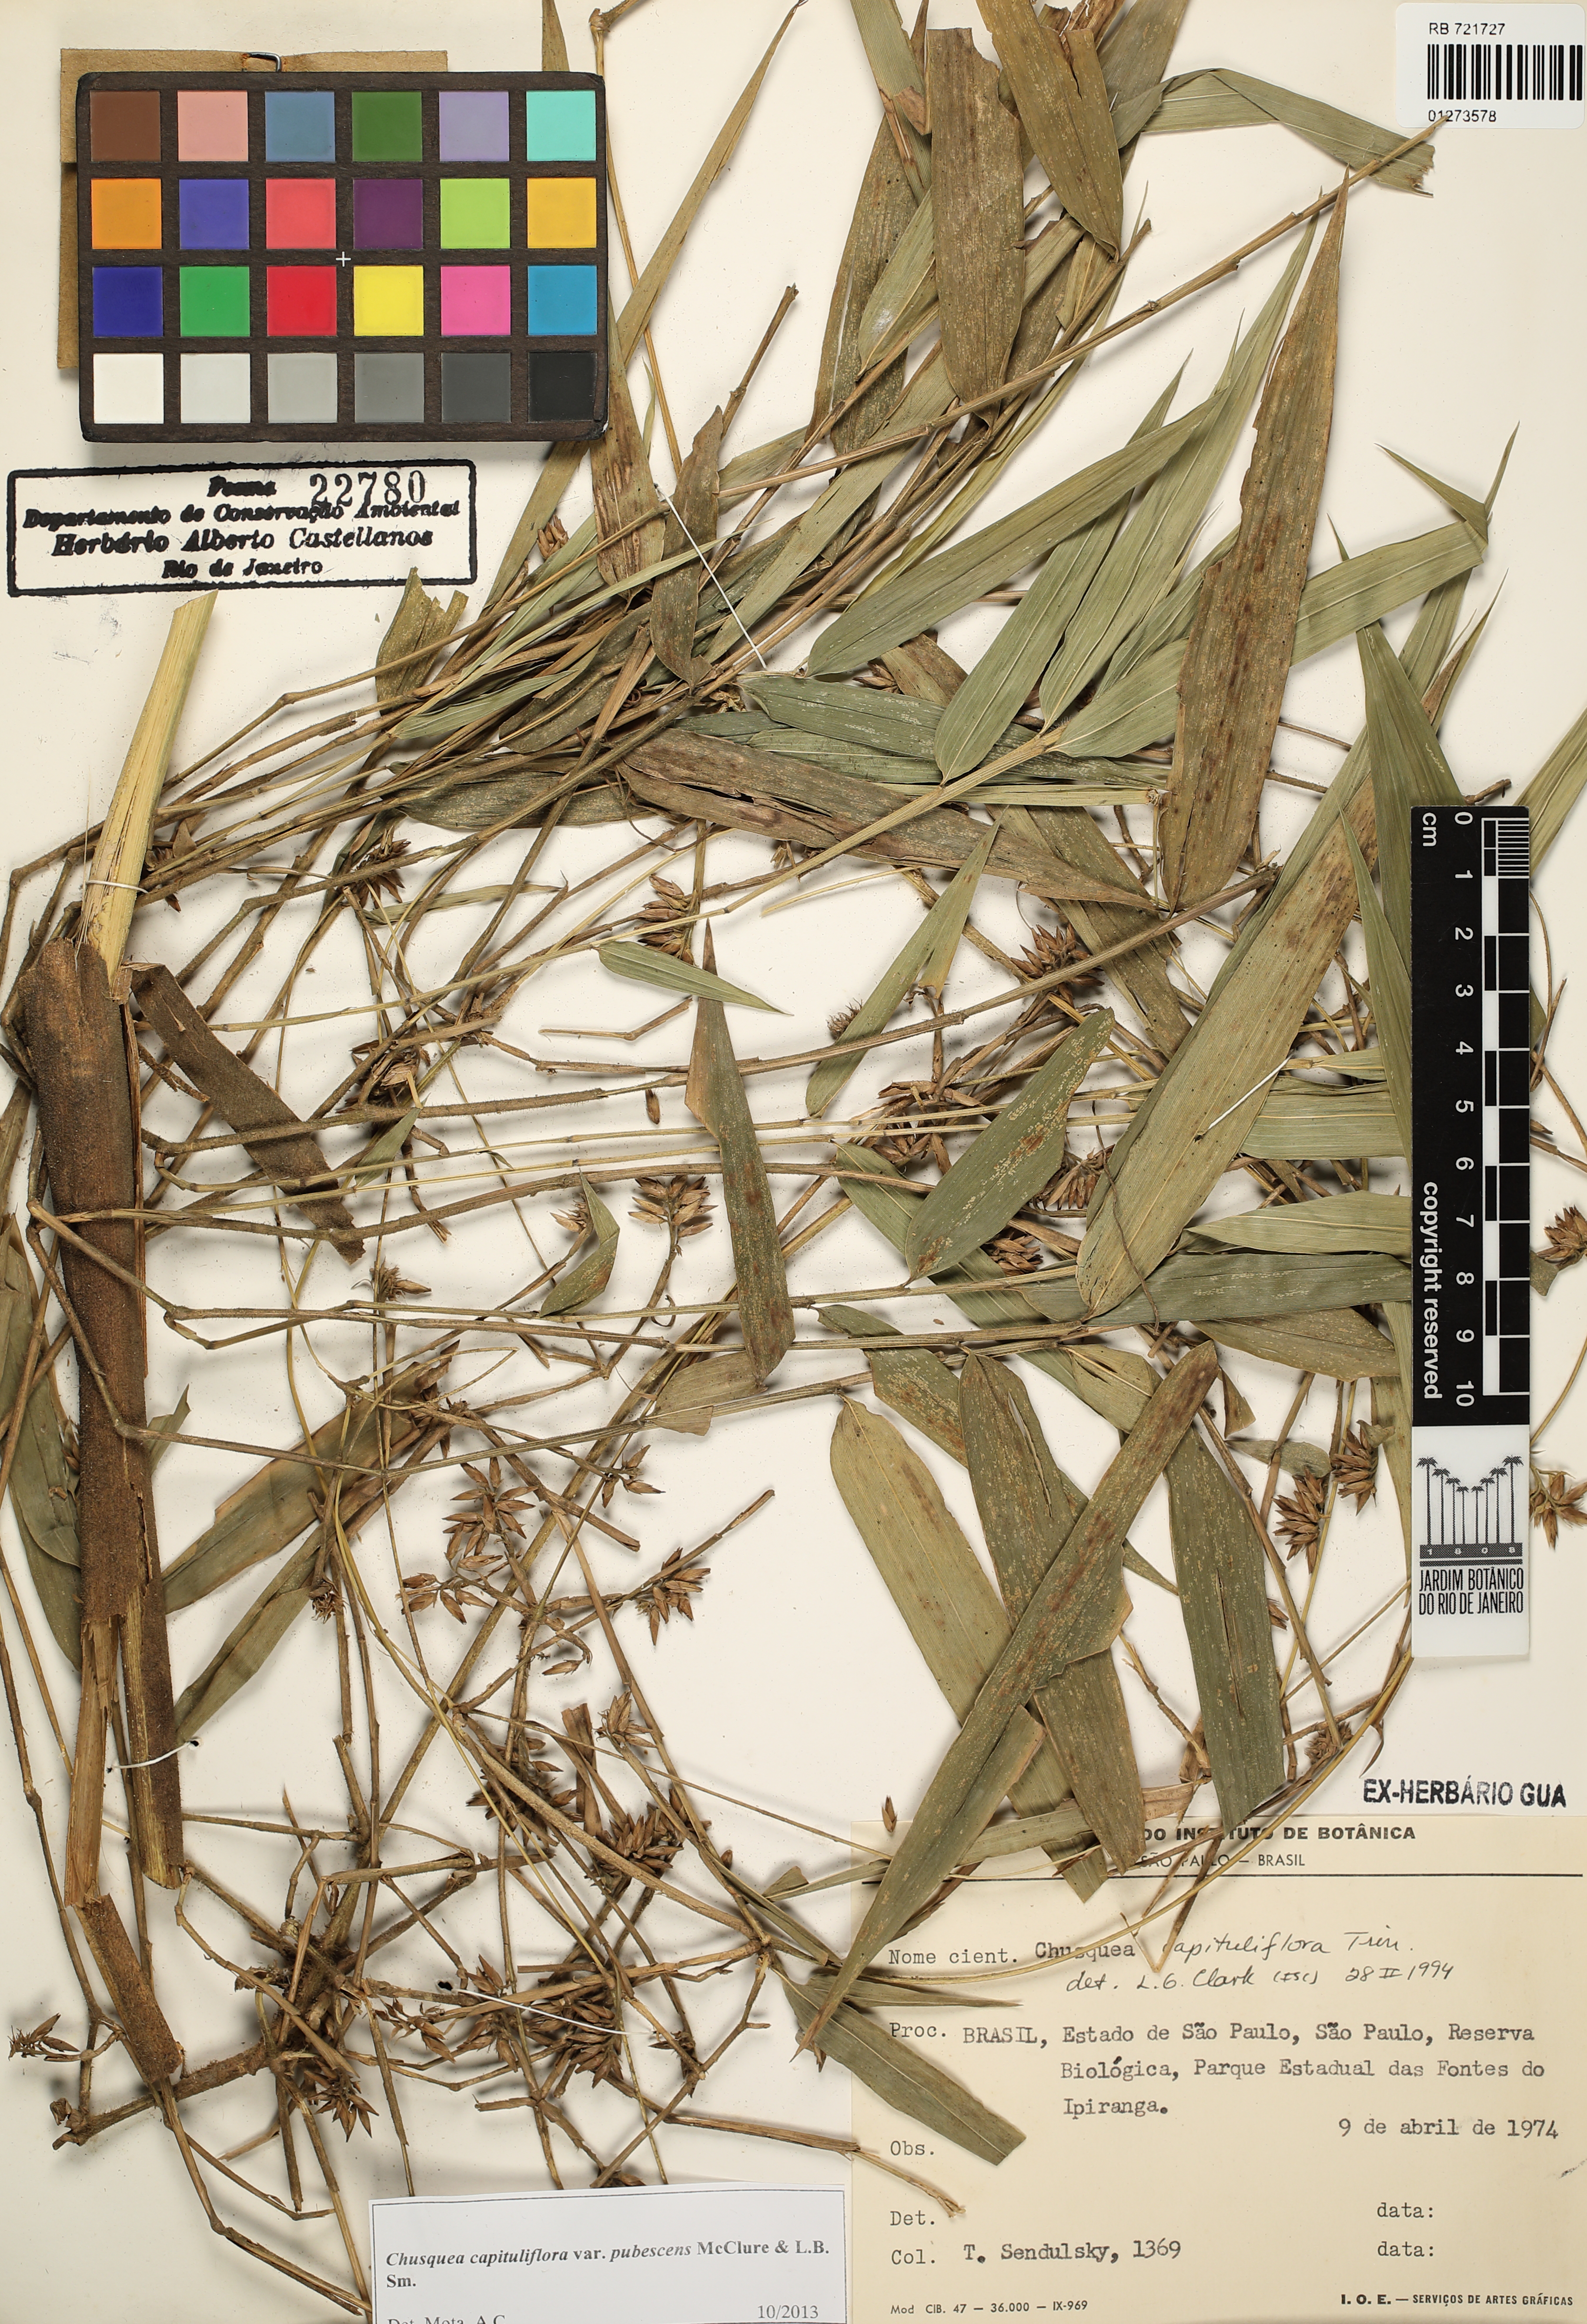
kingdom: Plantae
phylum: Tracheophyta
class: Liliopsida
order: Poales
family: Poaceae
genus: Chusquea
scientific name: Chusquea kleinii
